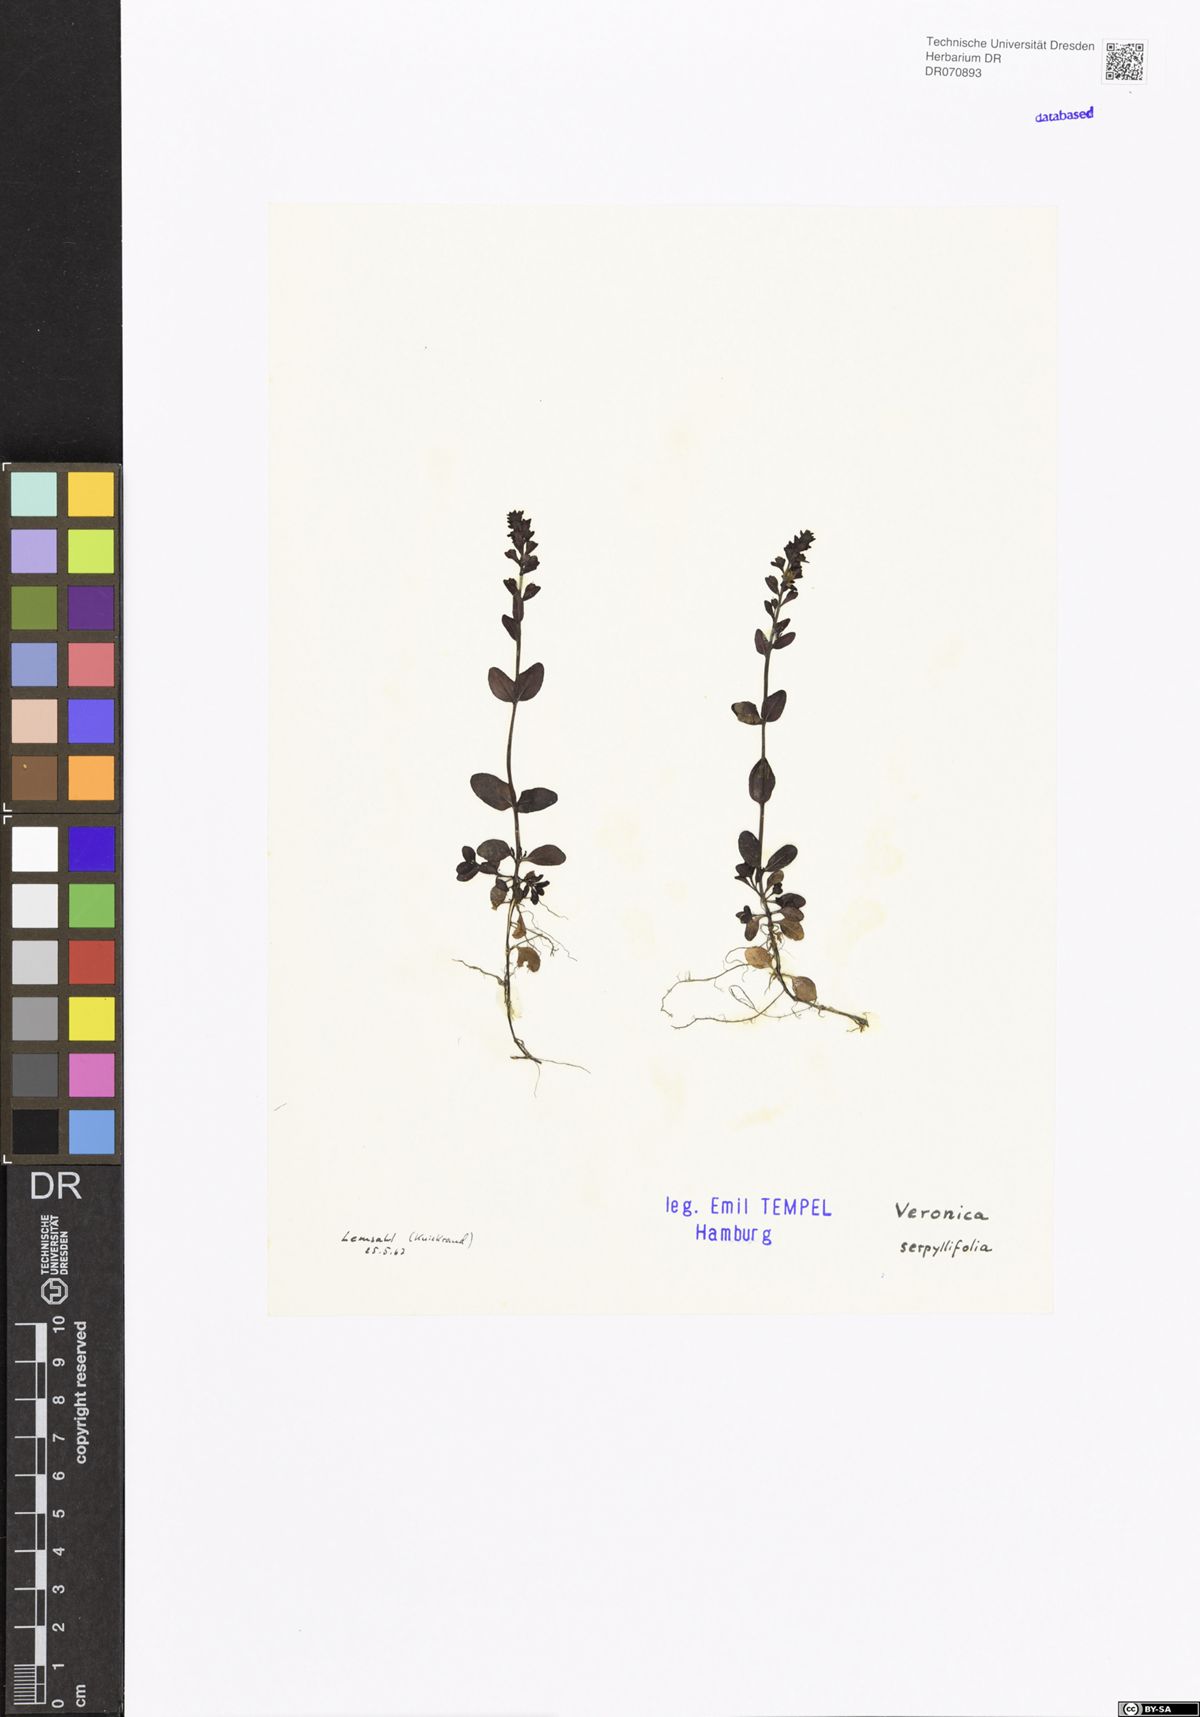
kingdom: Plantae
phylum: Tracheophyta
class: Magnoliopsida
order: Lamiales
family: Plantaginaceae
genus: Veronica
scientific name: Veronica serpyllifolia
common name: Thyme-leaved speedwell
